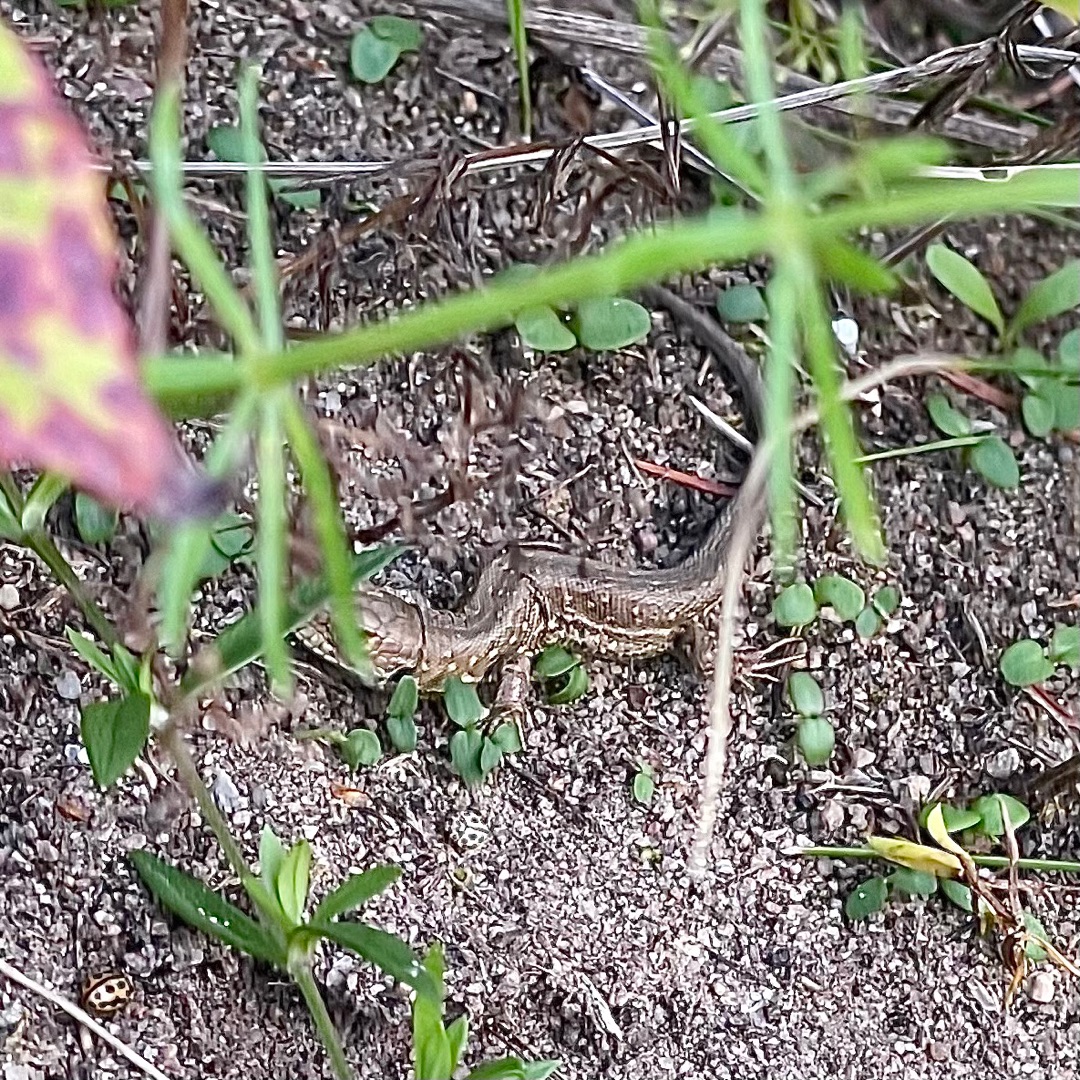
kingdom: Animalia
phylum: Chordata
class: Squamata
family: Lacertidae
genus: Lacerta
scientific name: Lacerta agilis
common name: Markfirben
